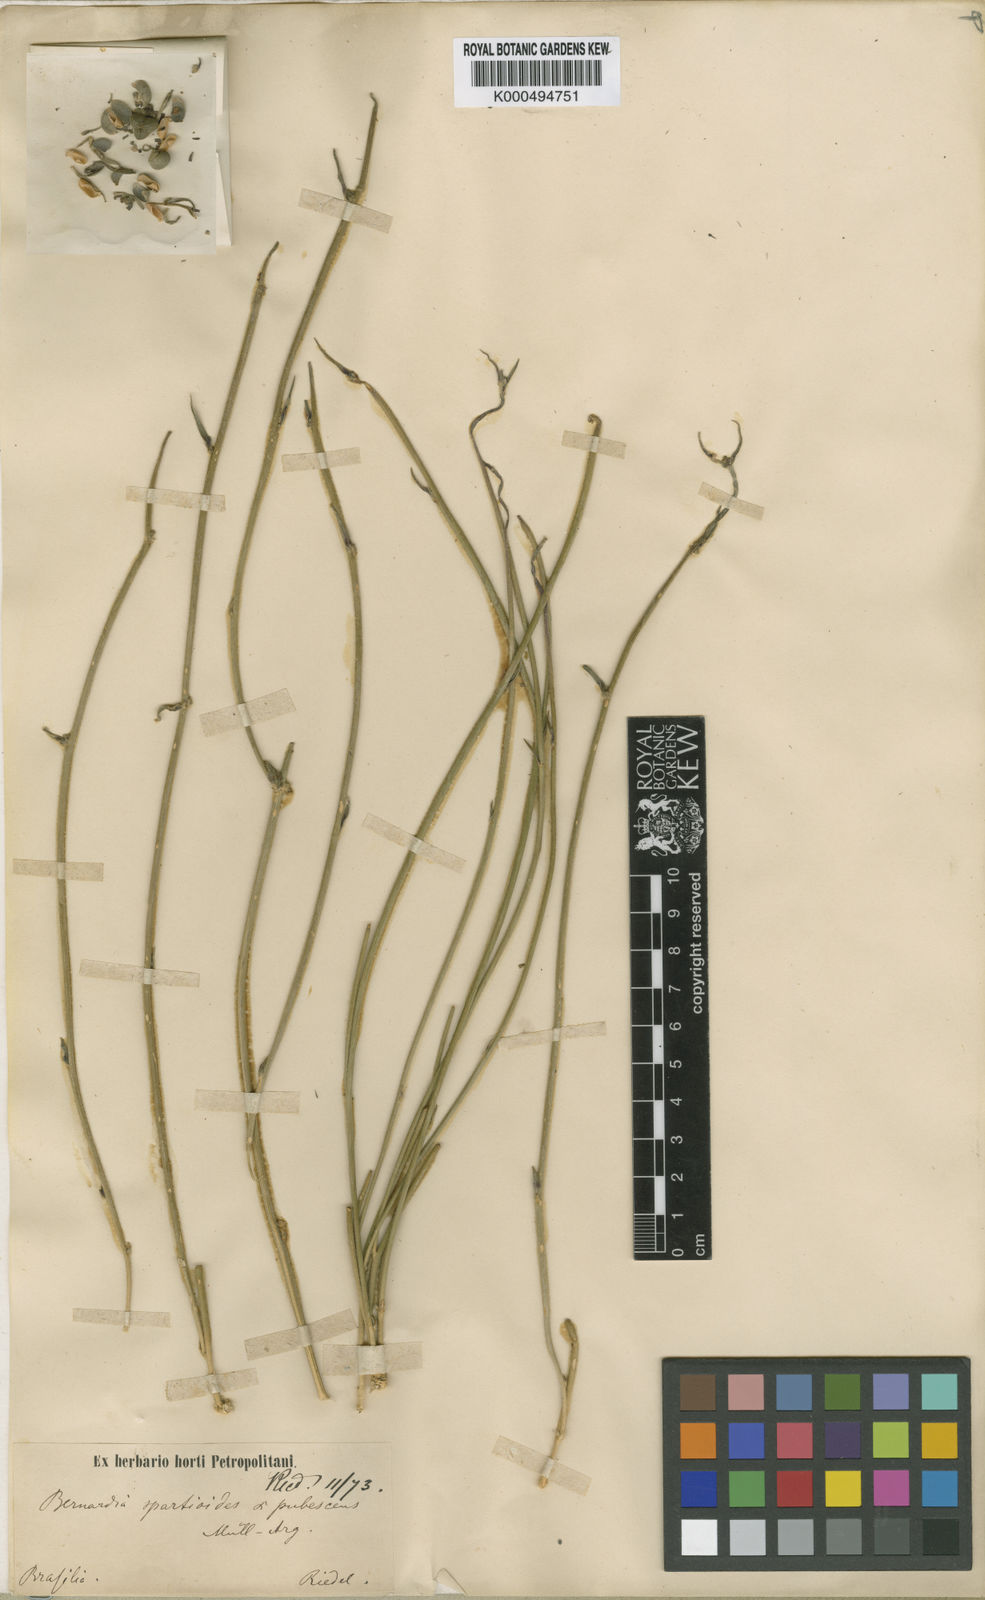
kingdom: Plantae
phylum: Tracheophyta
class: Magnoliopsida
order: Malpighiales
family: Euphorbiaceae
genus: Bernardia
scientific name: Bernardia
